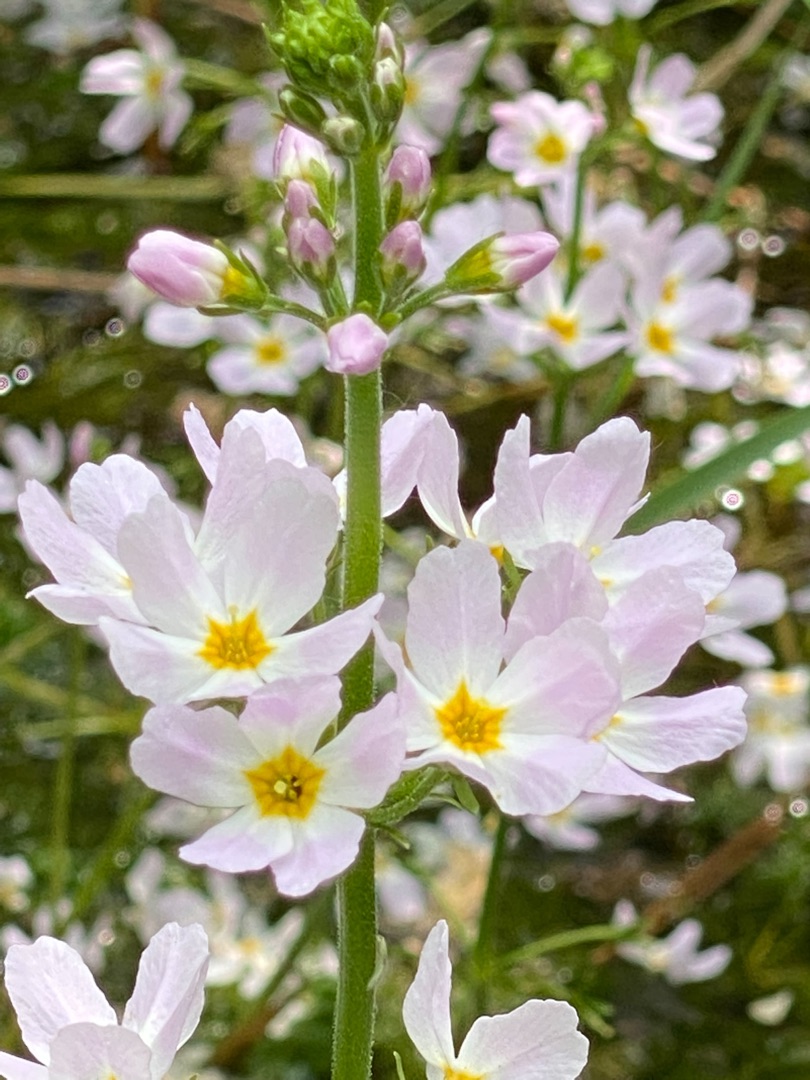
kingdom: Plantae
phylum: Tracheophyta
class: Magnoliopsida
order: Ericales
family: Primulaceae
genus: Hottonia
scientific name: Hottonia palustris
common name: Vandrøllike
